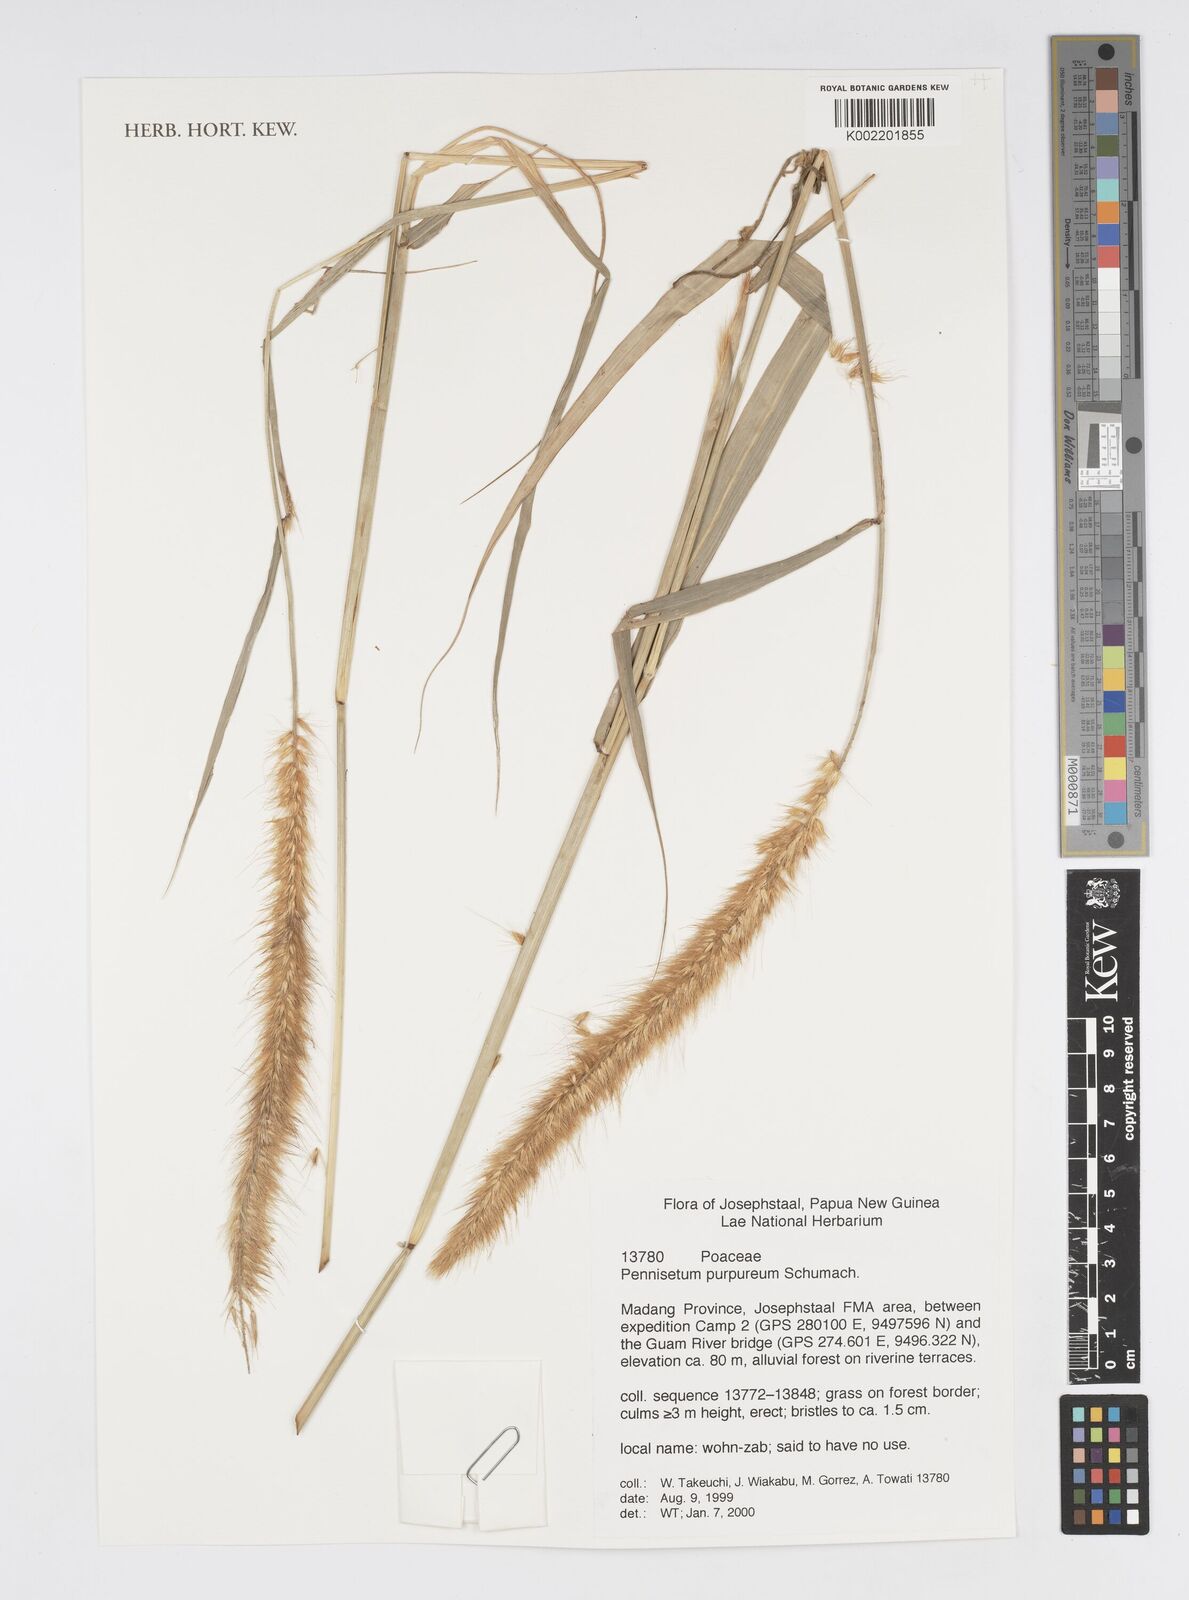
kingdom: Plantae
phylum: Tracheophyta
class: Liliopsida
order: Poales
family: Poaceae
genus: Cenchrus
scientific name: Cenchrus purpureus
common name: Elephant grass
